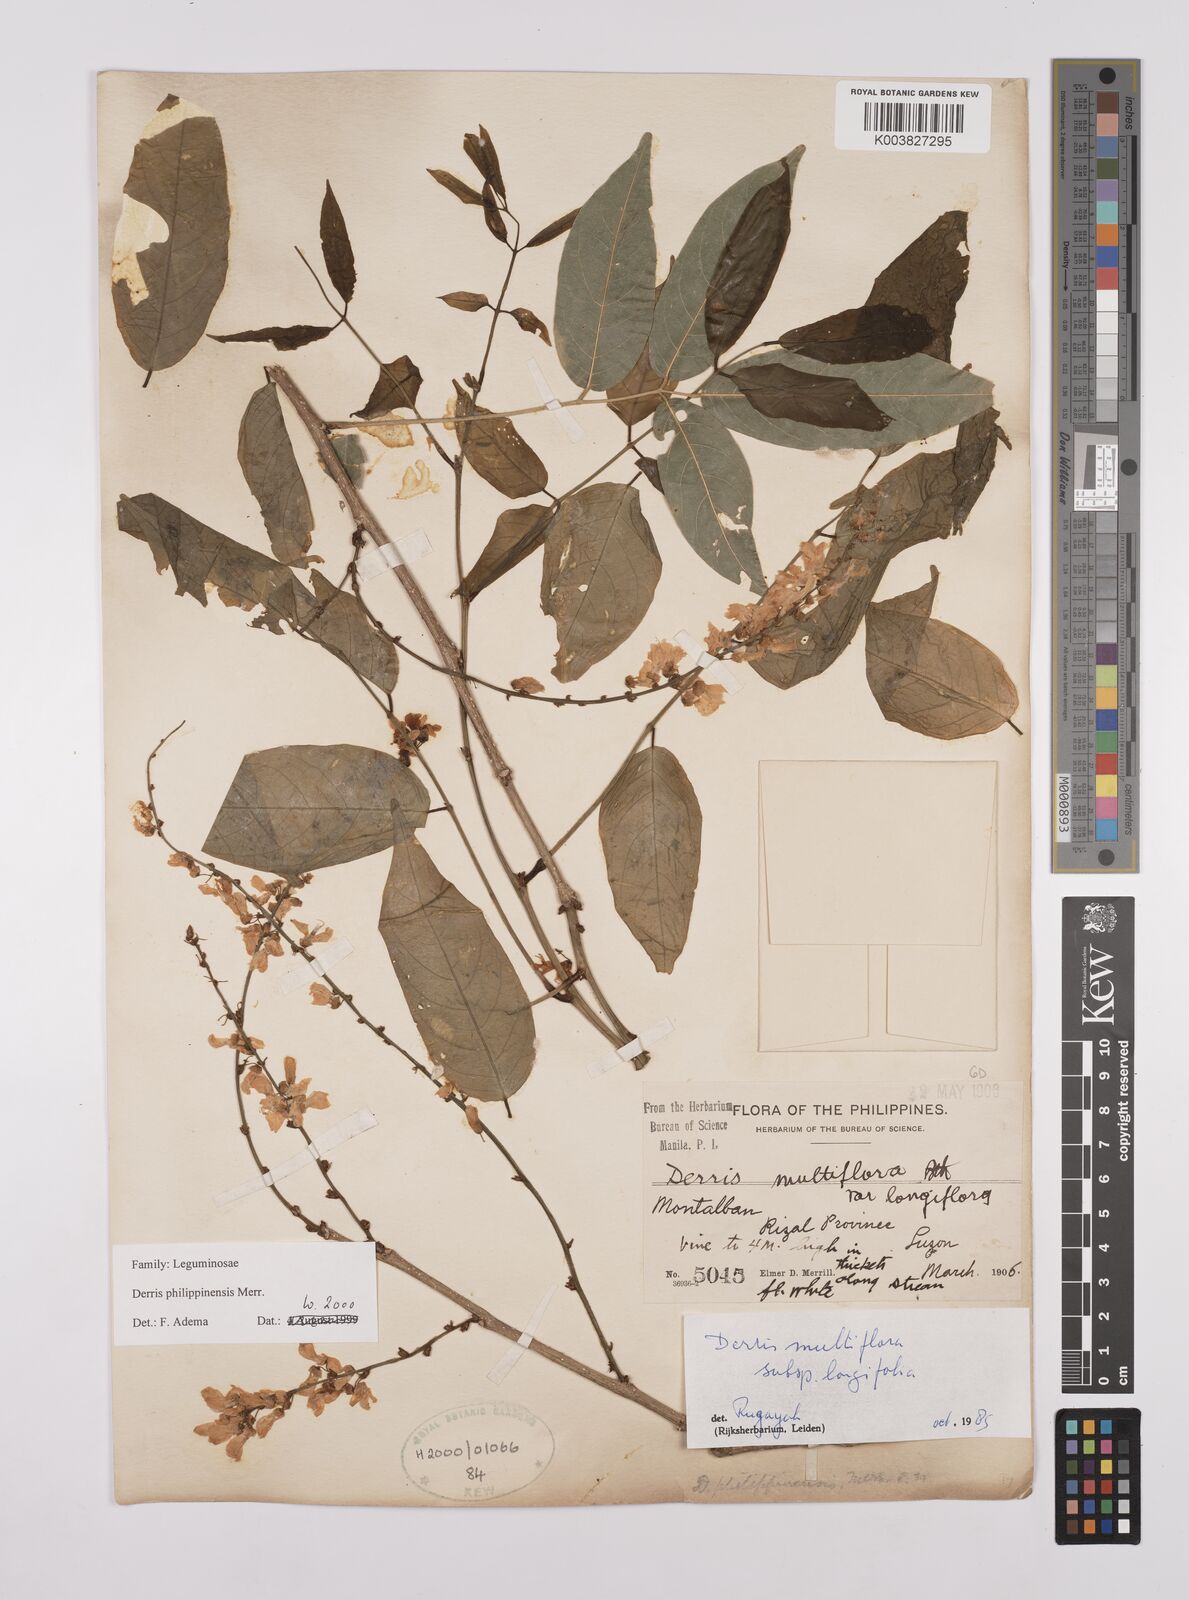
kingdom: Plantae
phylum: Tracheophyta
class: Magnoliopsida
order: Fabales
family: Fabaceae
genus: Brachypterum
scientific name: Brachypterum philippinense
